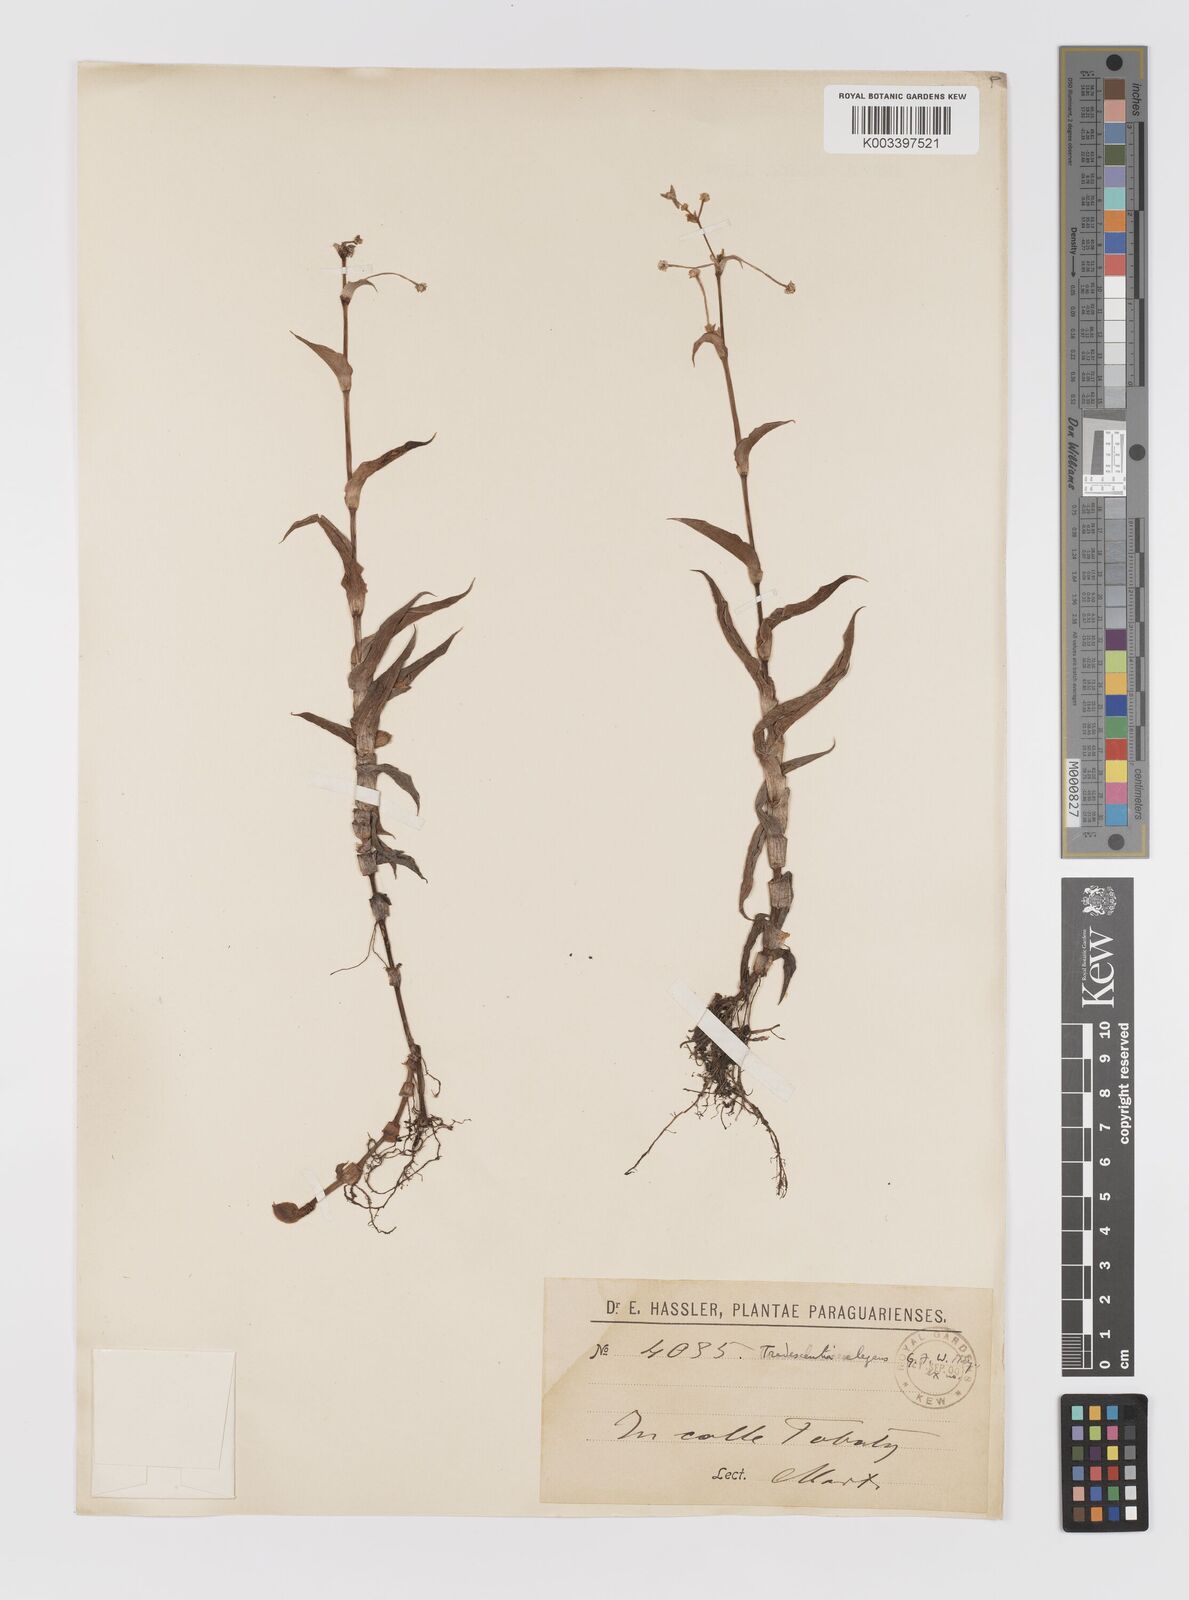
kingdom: Plantae
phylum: Tracheophyta
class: Liliopsida
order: Commelinales
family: Commelinaceae
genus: Callisia
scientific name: Callisia glandulosa
